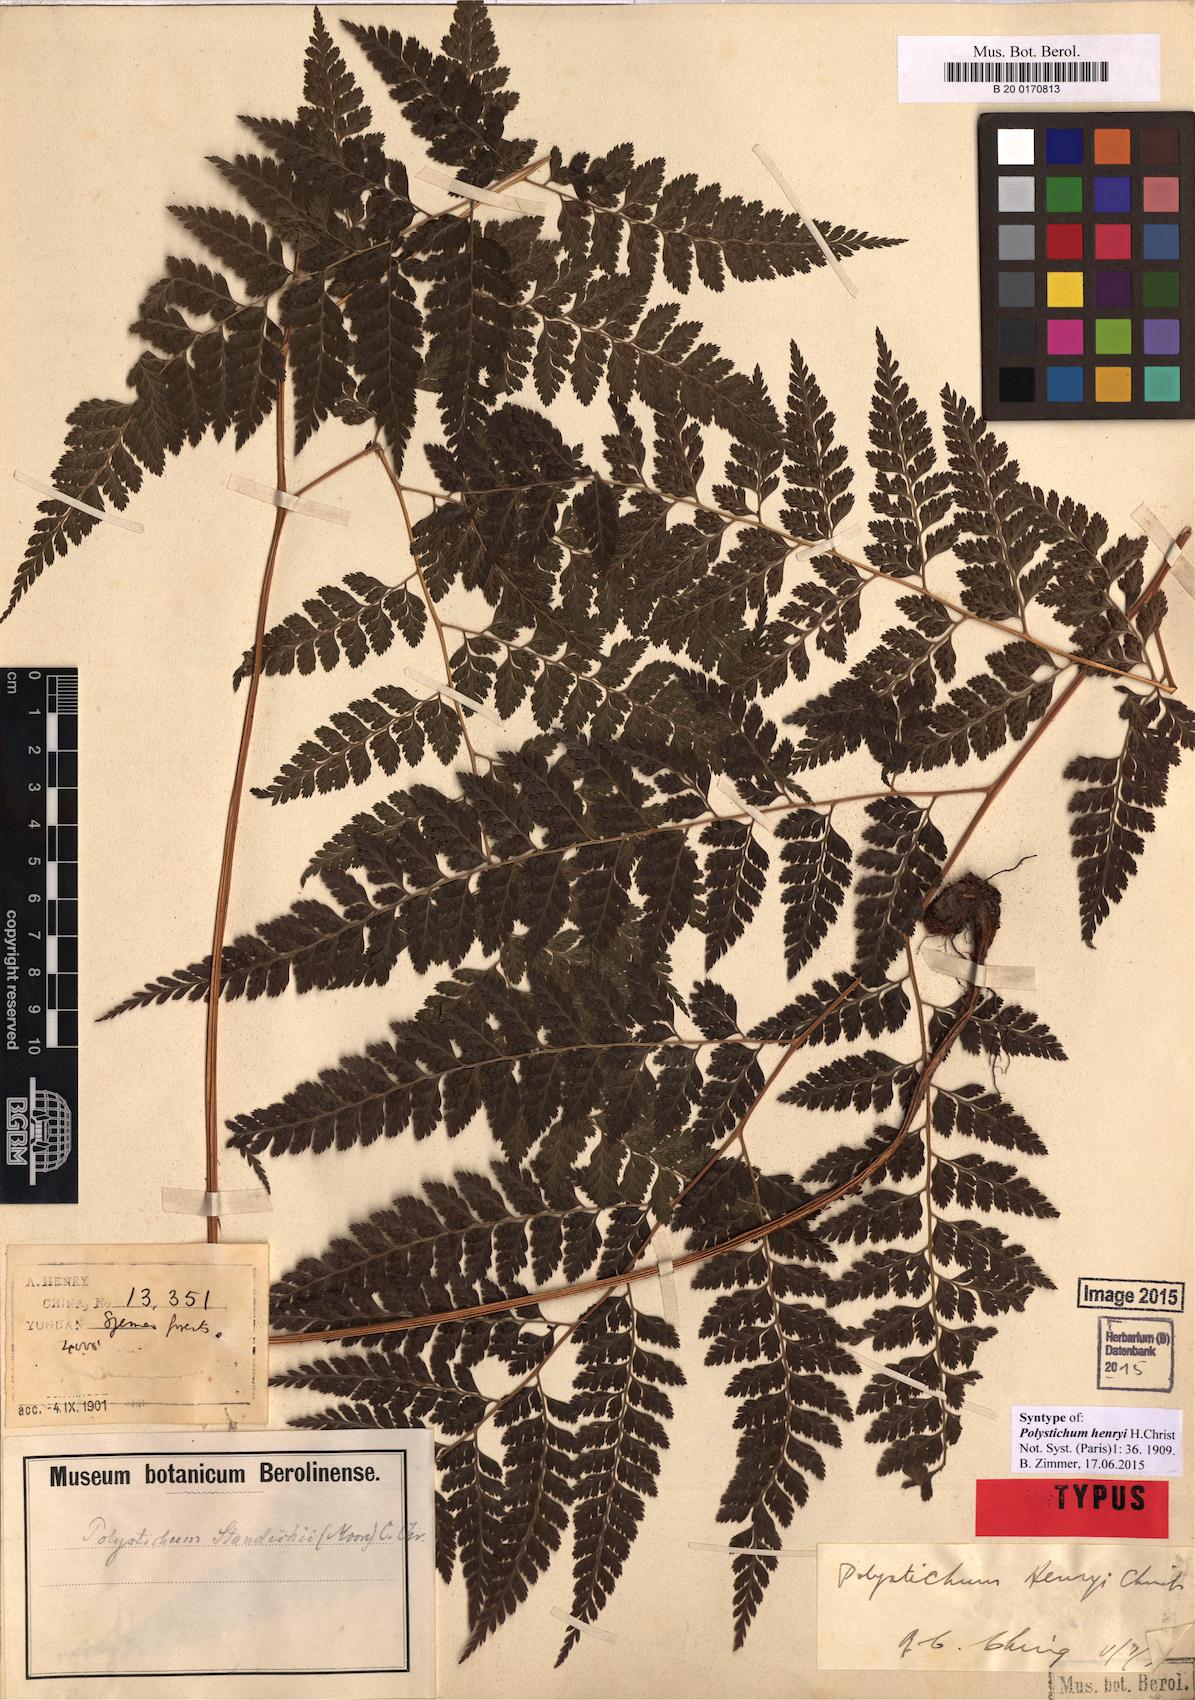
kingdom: Plantae
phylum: Tracheophyta
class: Polypodiopsida
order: Polypodiales
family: Dryopteridaceae
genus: Arachniodes
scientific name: Arachniodes henryi
